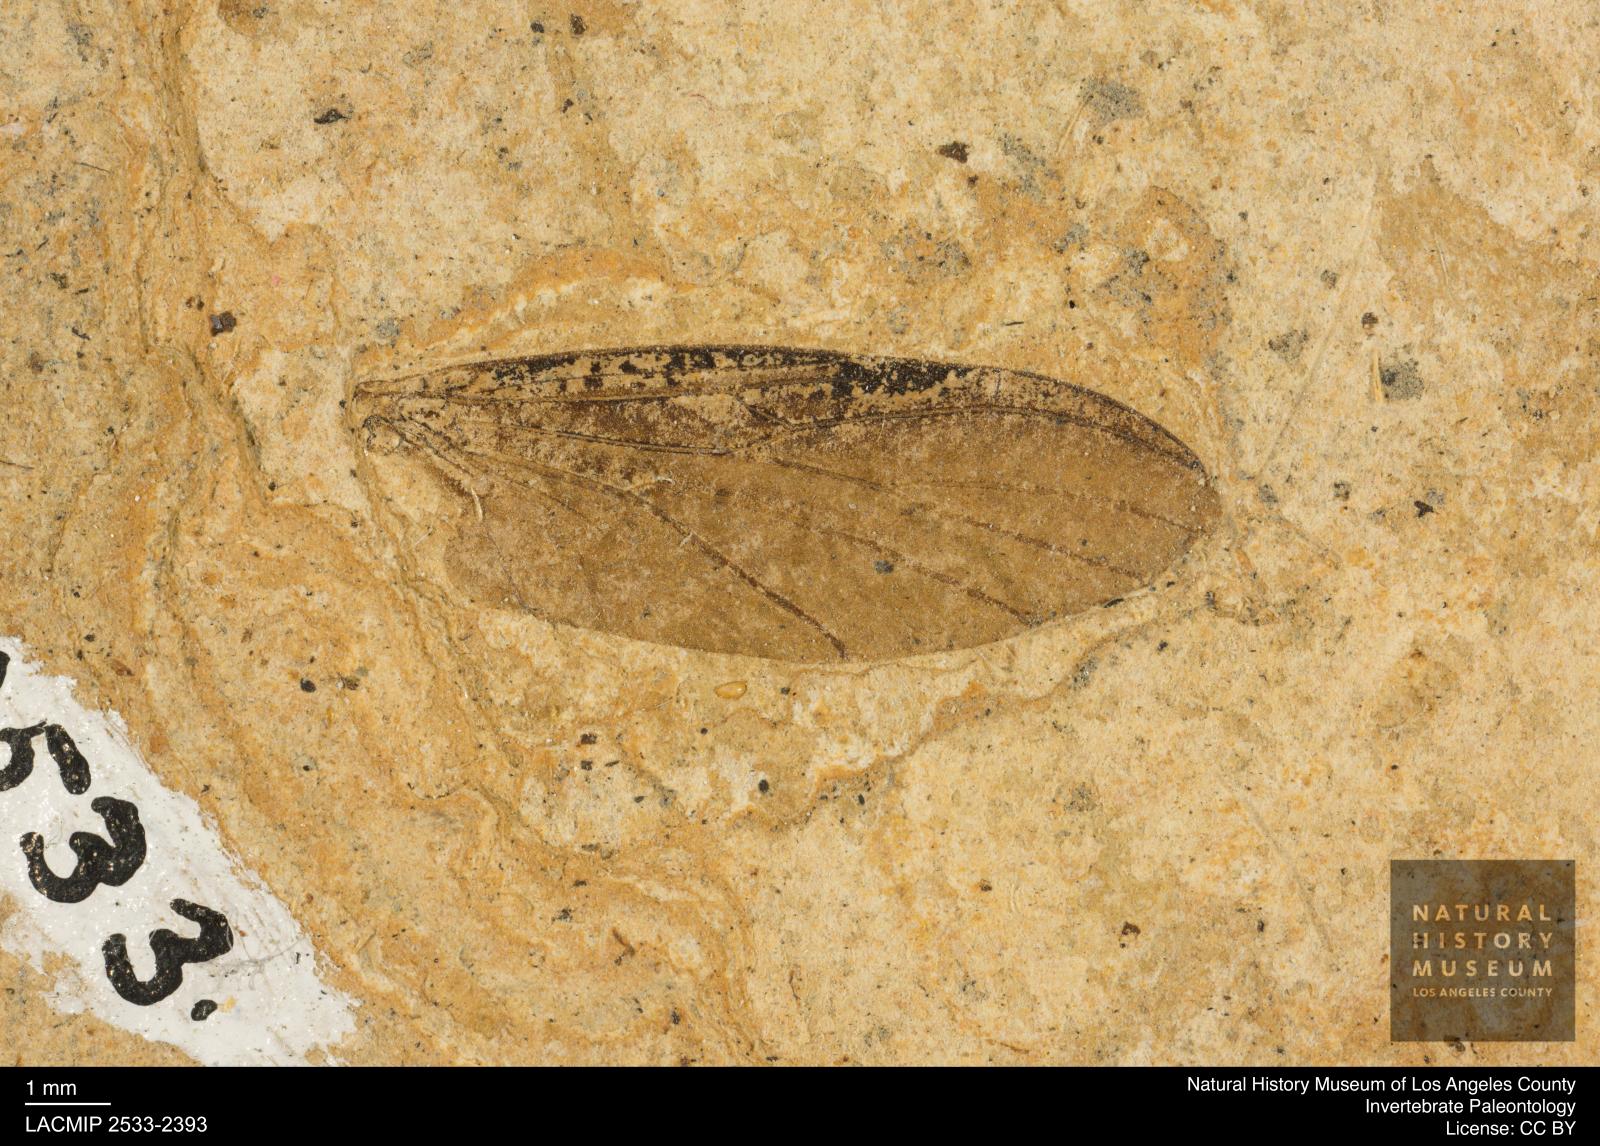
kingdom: Animalia
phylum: Arthropoda
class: Insecta
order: Diptera
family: Bibionidae
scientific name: Bibionidae
